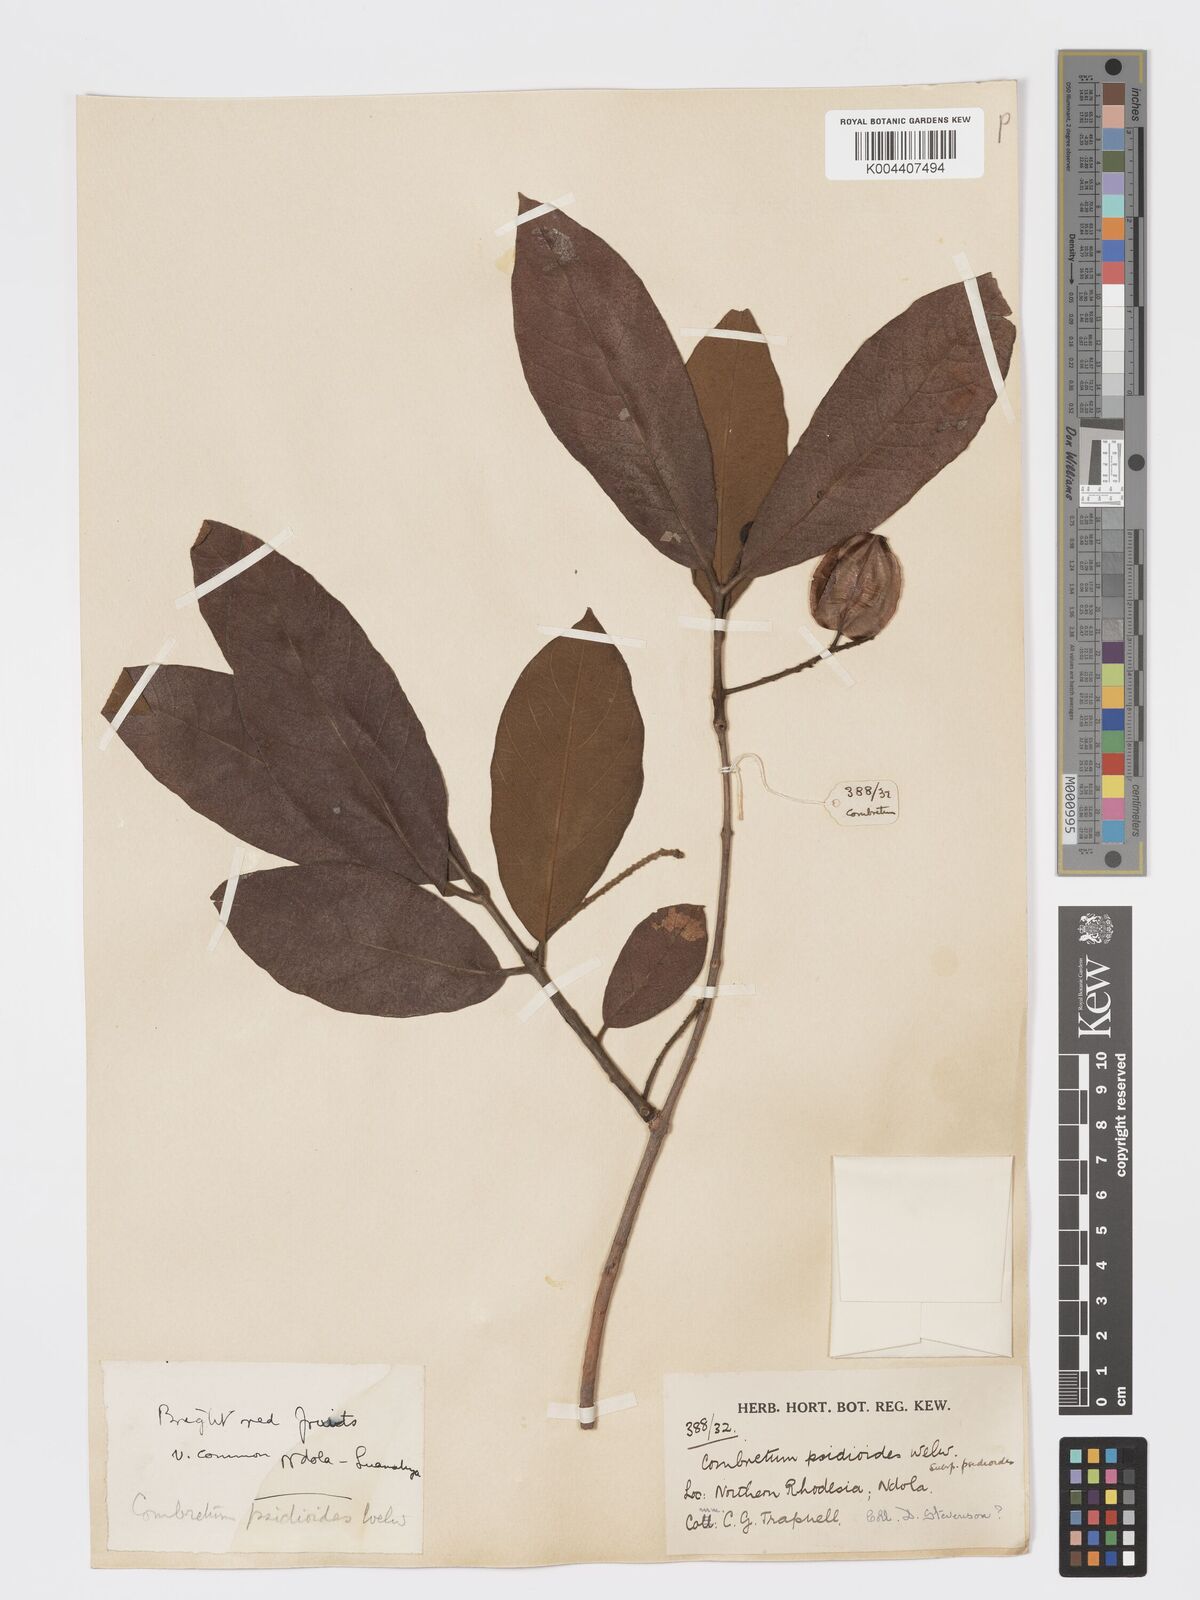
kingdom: Plantae
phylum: Tracheophyta
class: Magnoliopsida
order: Myrtales
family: Combretaceae
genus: Combretum
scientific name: Combretum psidioides
